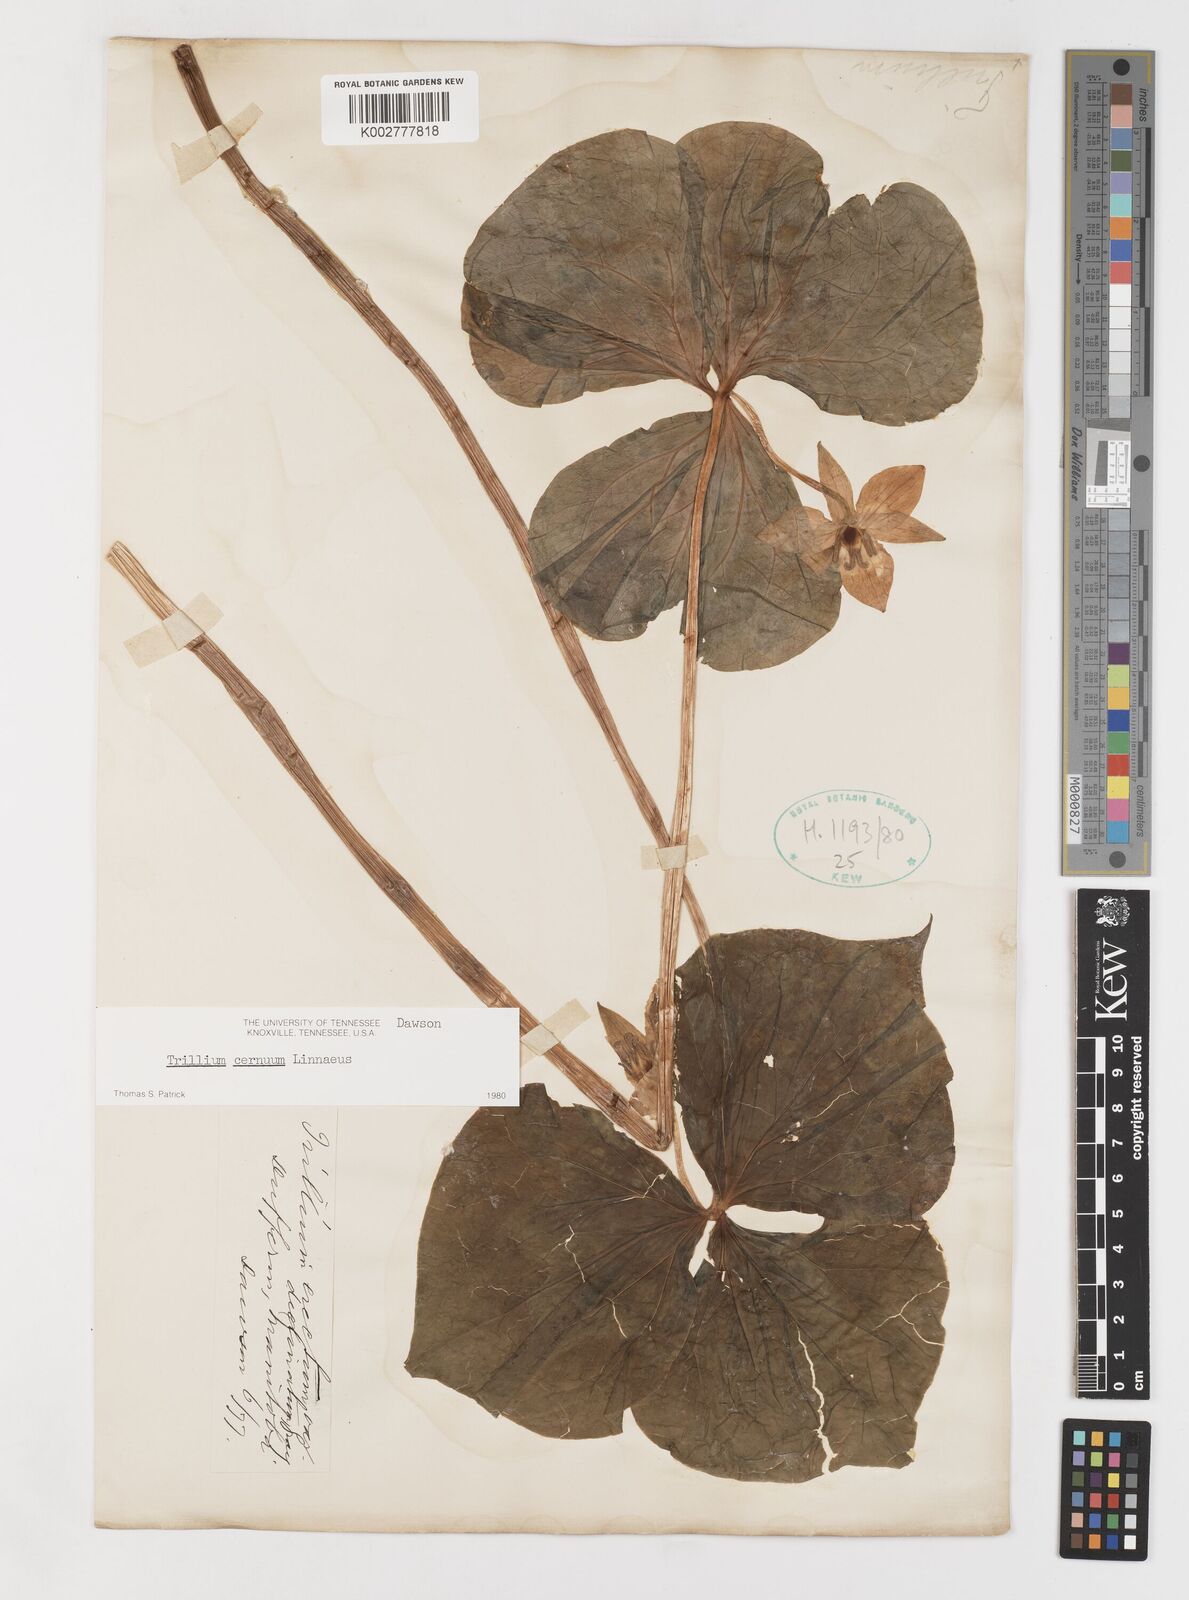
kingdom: Plantae
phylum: Tracheophyta
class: Liliopsida
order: Liliales
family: Melanthiaceae
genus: Trillium
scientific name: Trillium cernuum
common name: Nodding trillium
